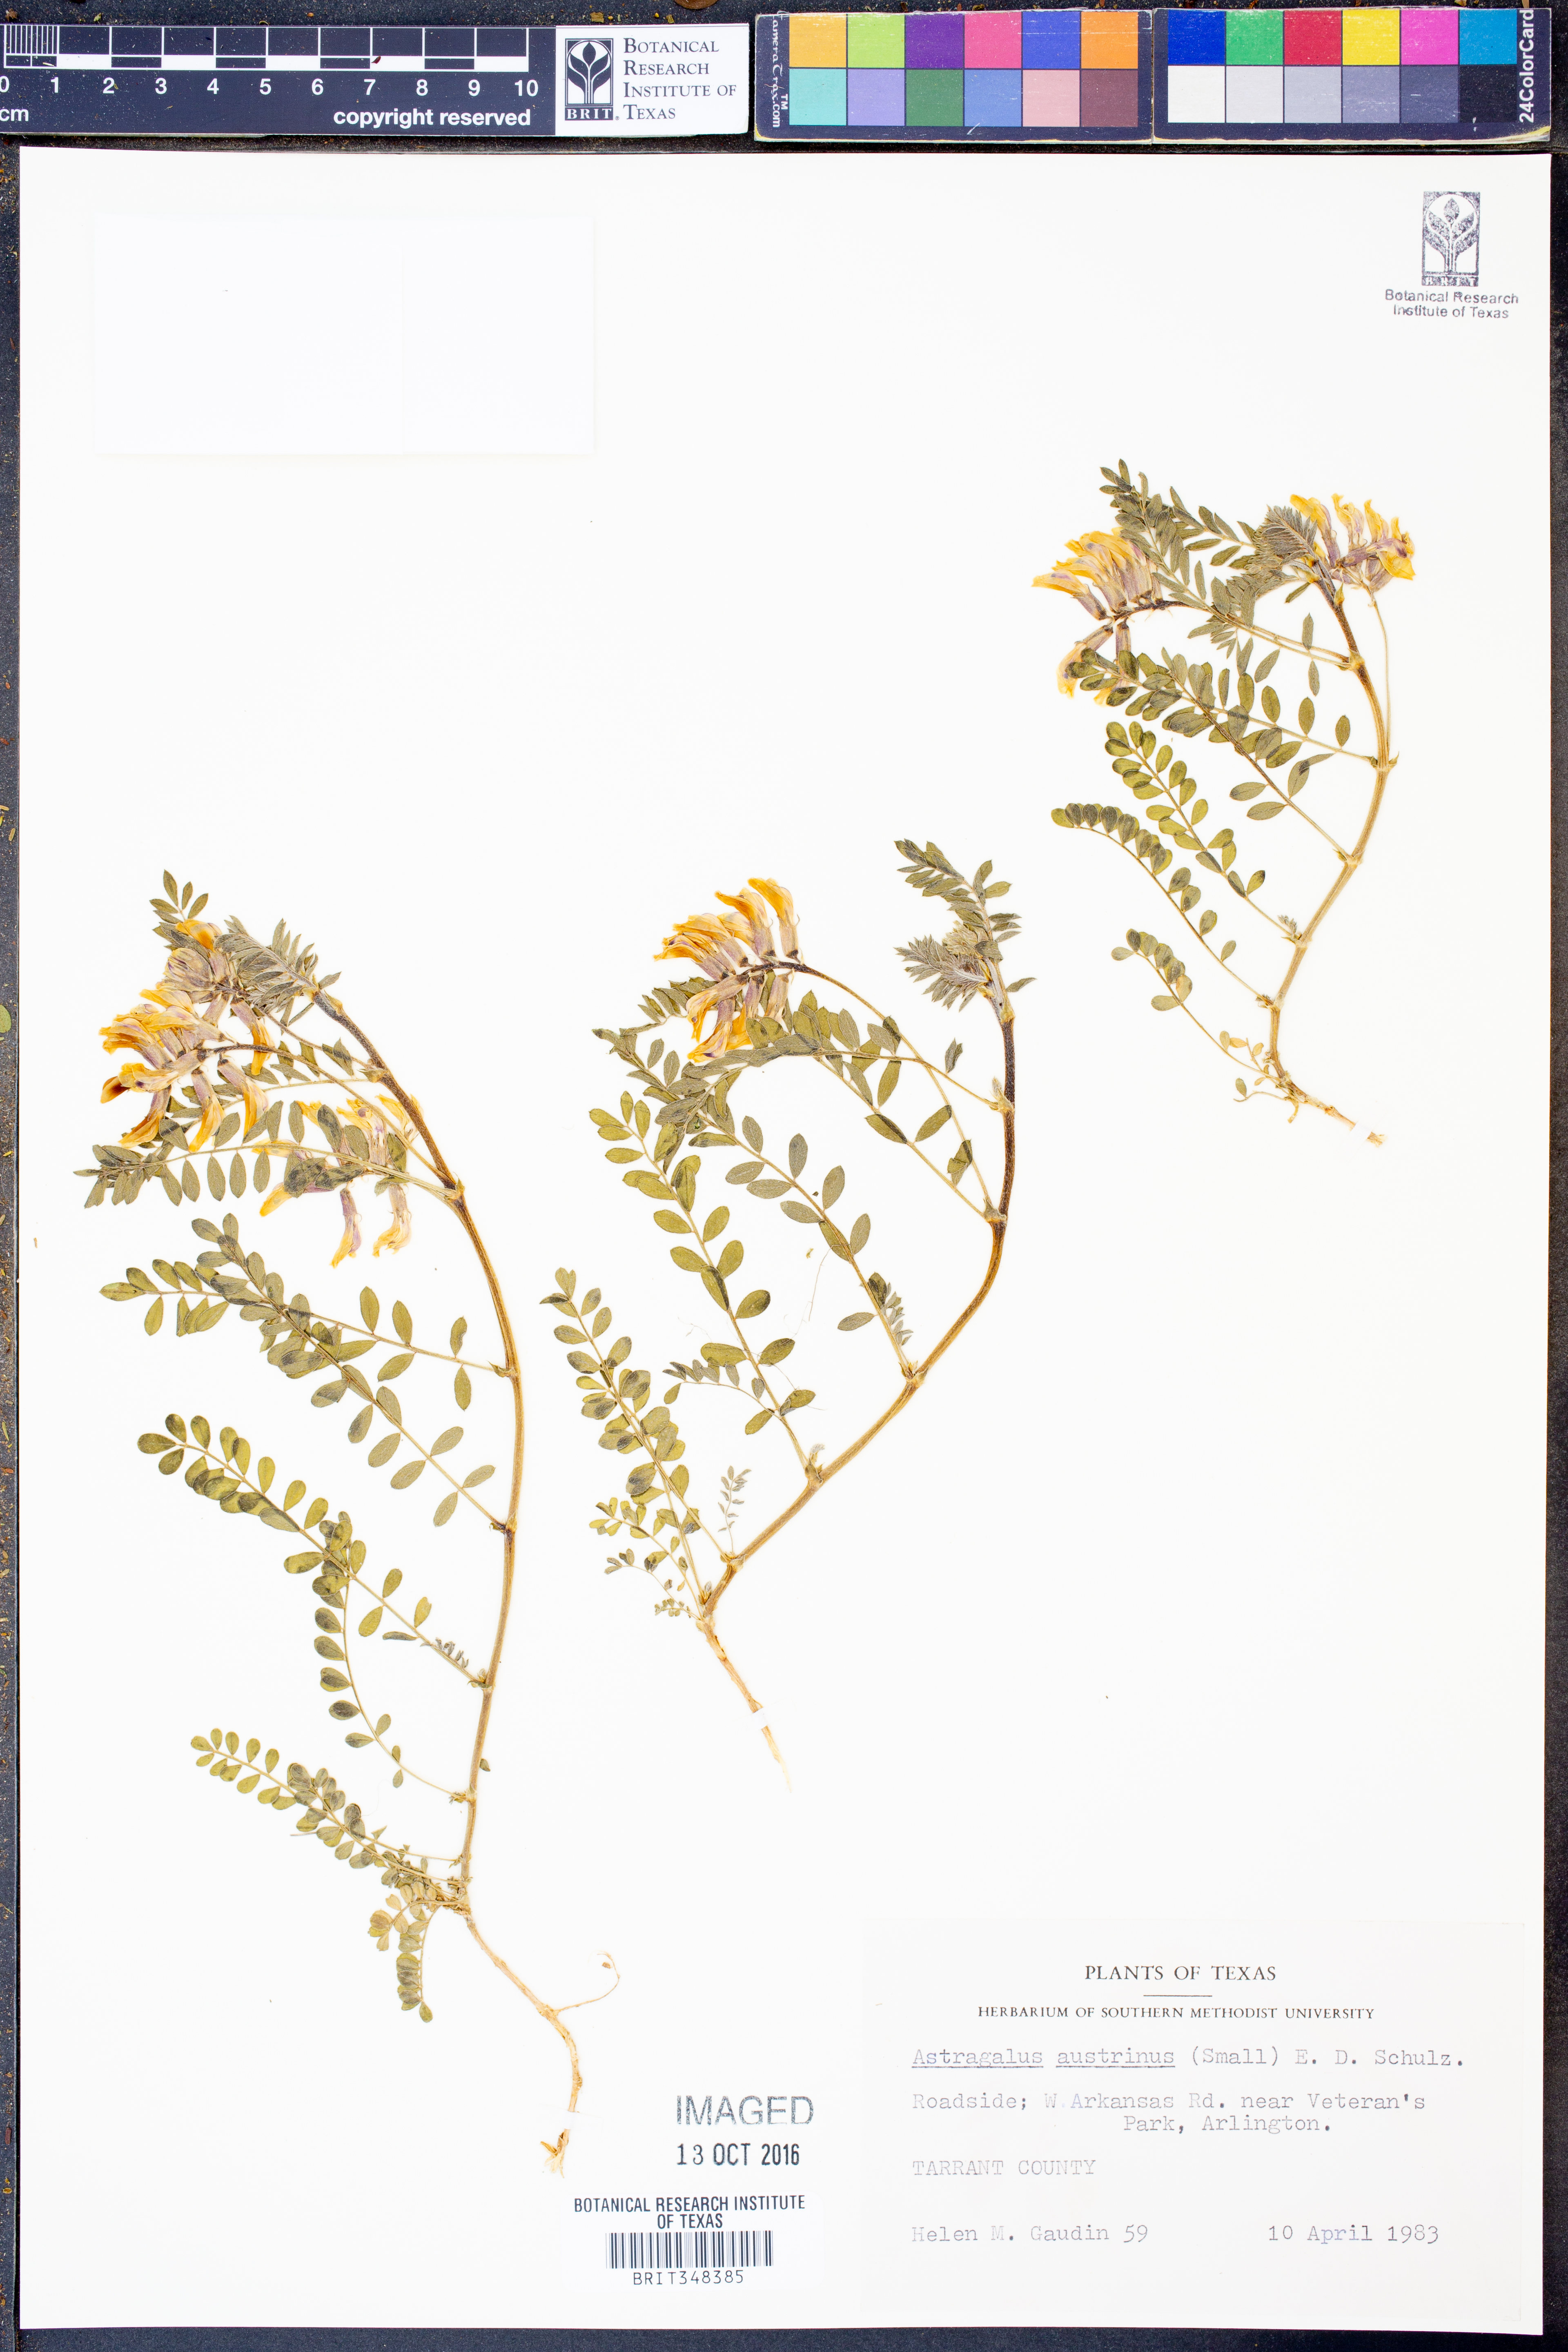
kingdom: Plantae
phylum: Tracheophyta
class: Magnoliopsida
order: Fabales
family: Fabaceae
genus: Astragalus
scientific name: Astragalus nuttallianus
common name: Smallflowered milkvetch
